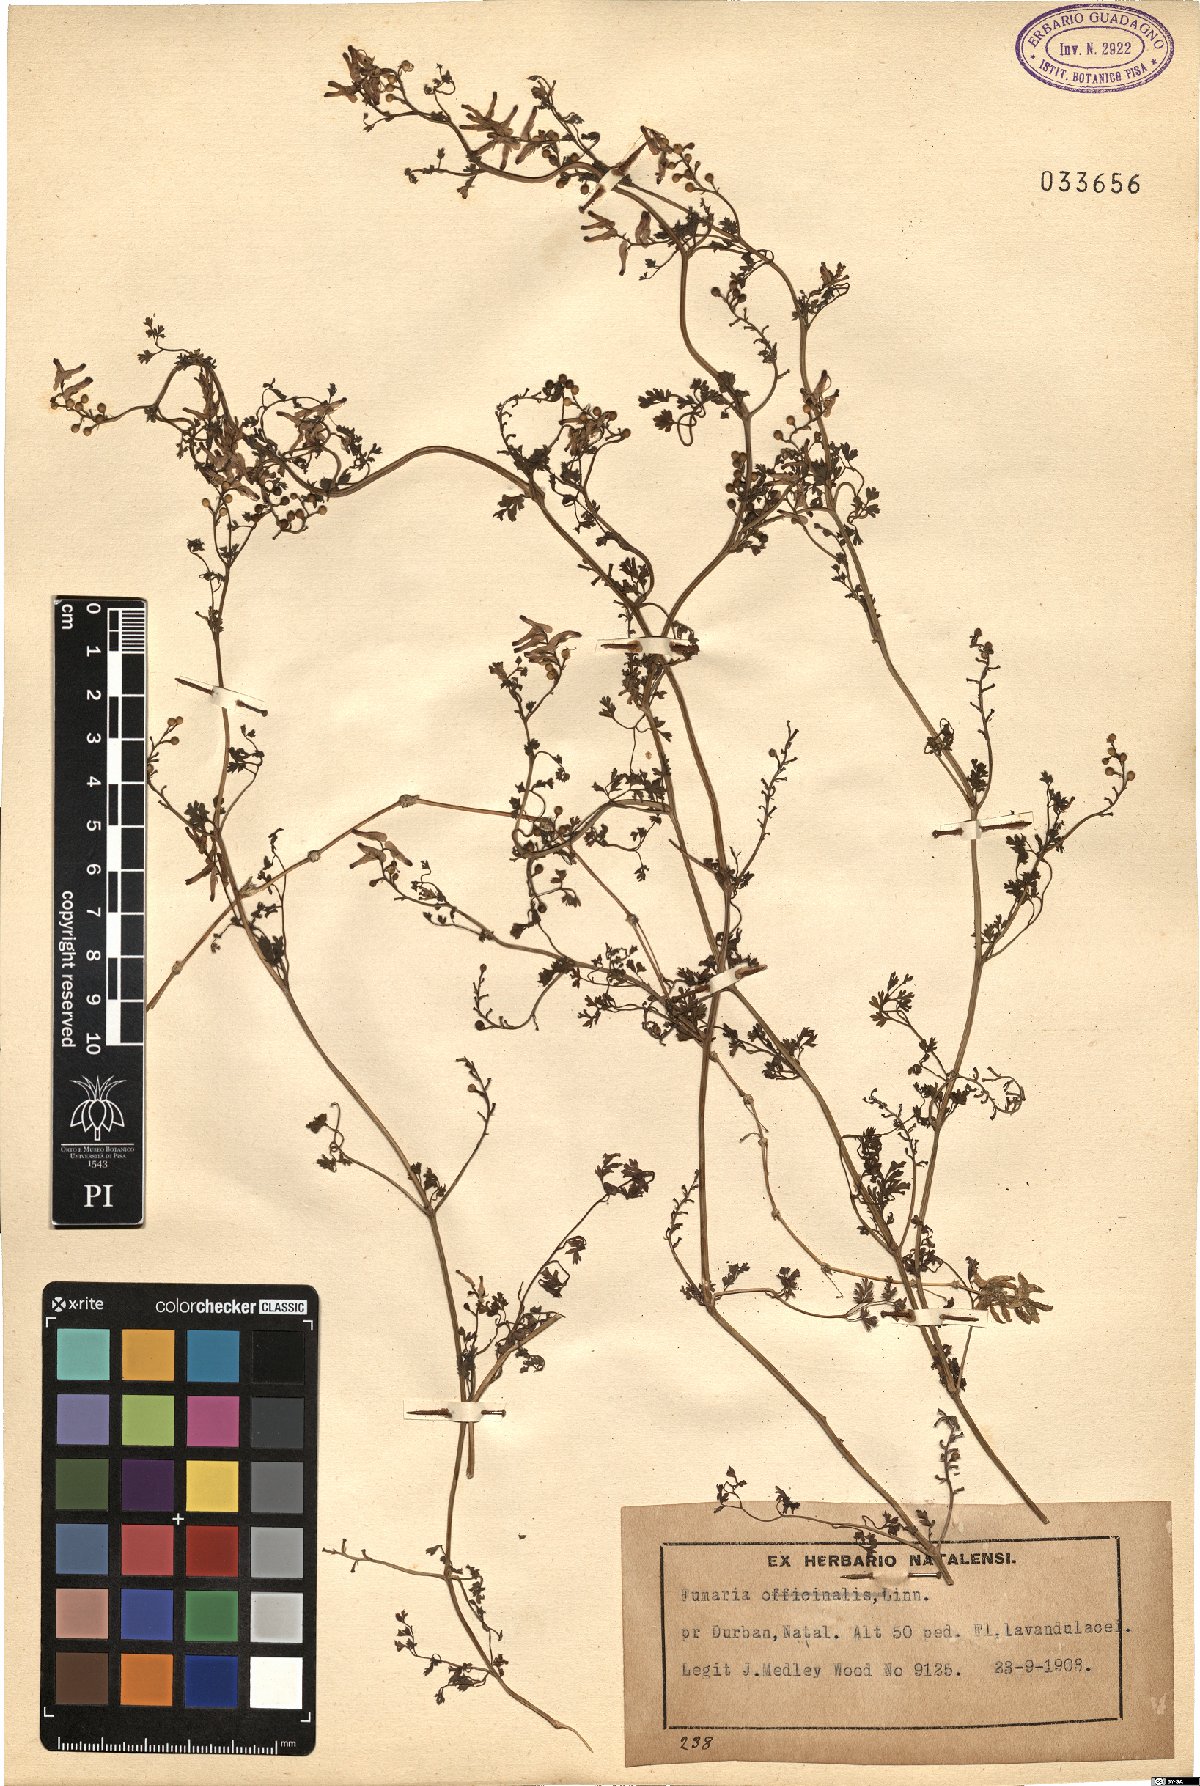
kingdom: Plantae
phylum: Tracheophyta
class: Magnoliopsida
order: Ranunculales
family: Papaveraceae
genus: Fumaria
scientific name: Fumaria officinalis
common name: Common fumitory
